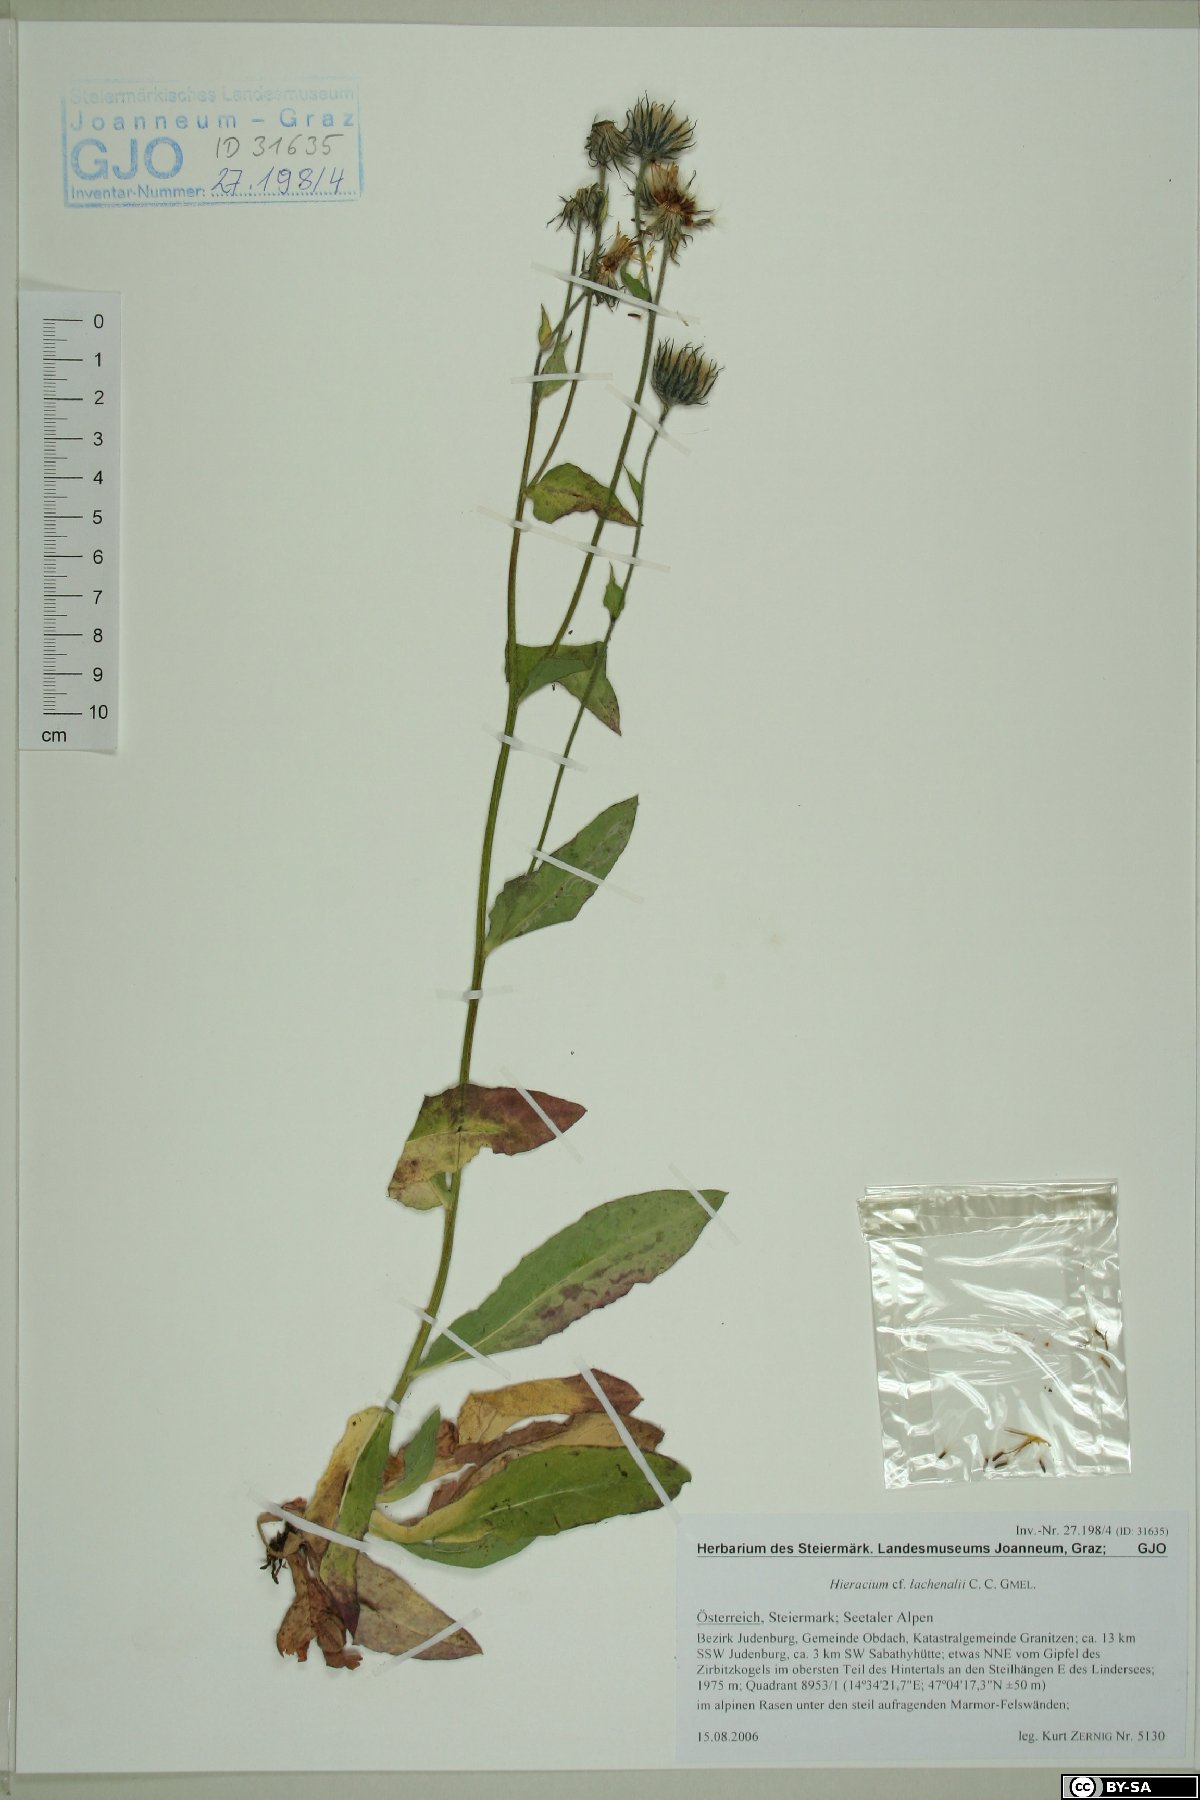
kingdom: Plantae
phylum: Tracheophyta
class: Magnoliopsida
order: Asterales
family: Asteraceae
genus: Hieracium
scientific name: Hieracium lachenalii
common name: Common hawkweed
